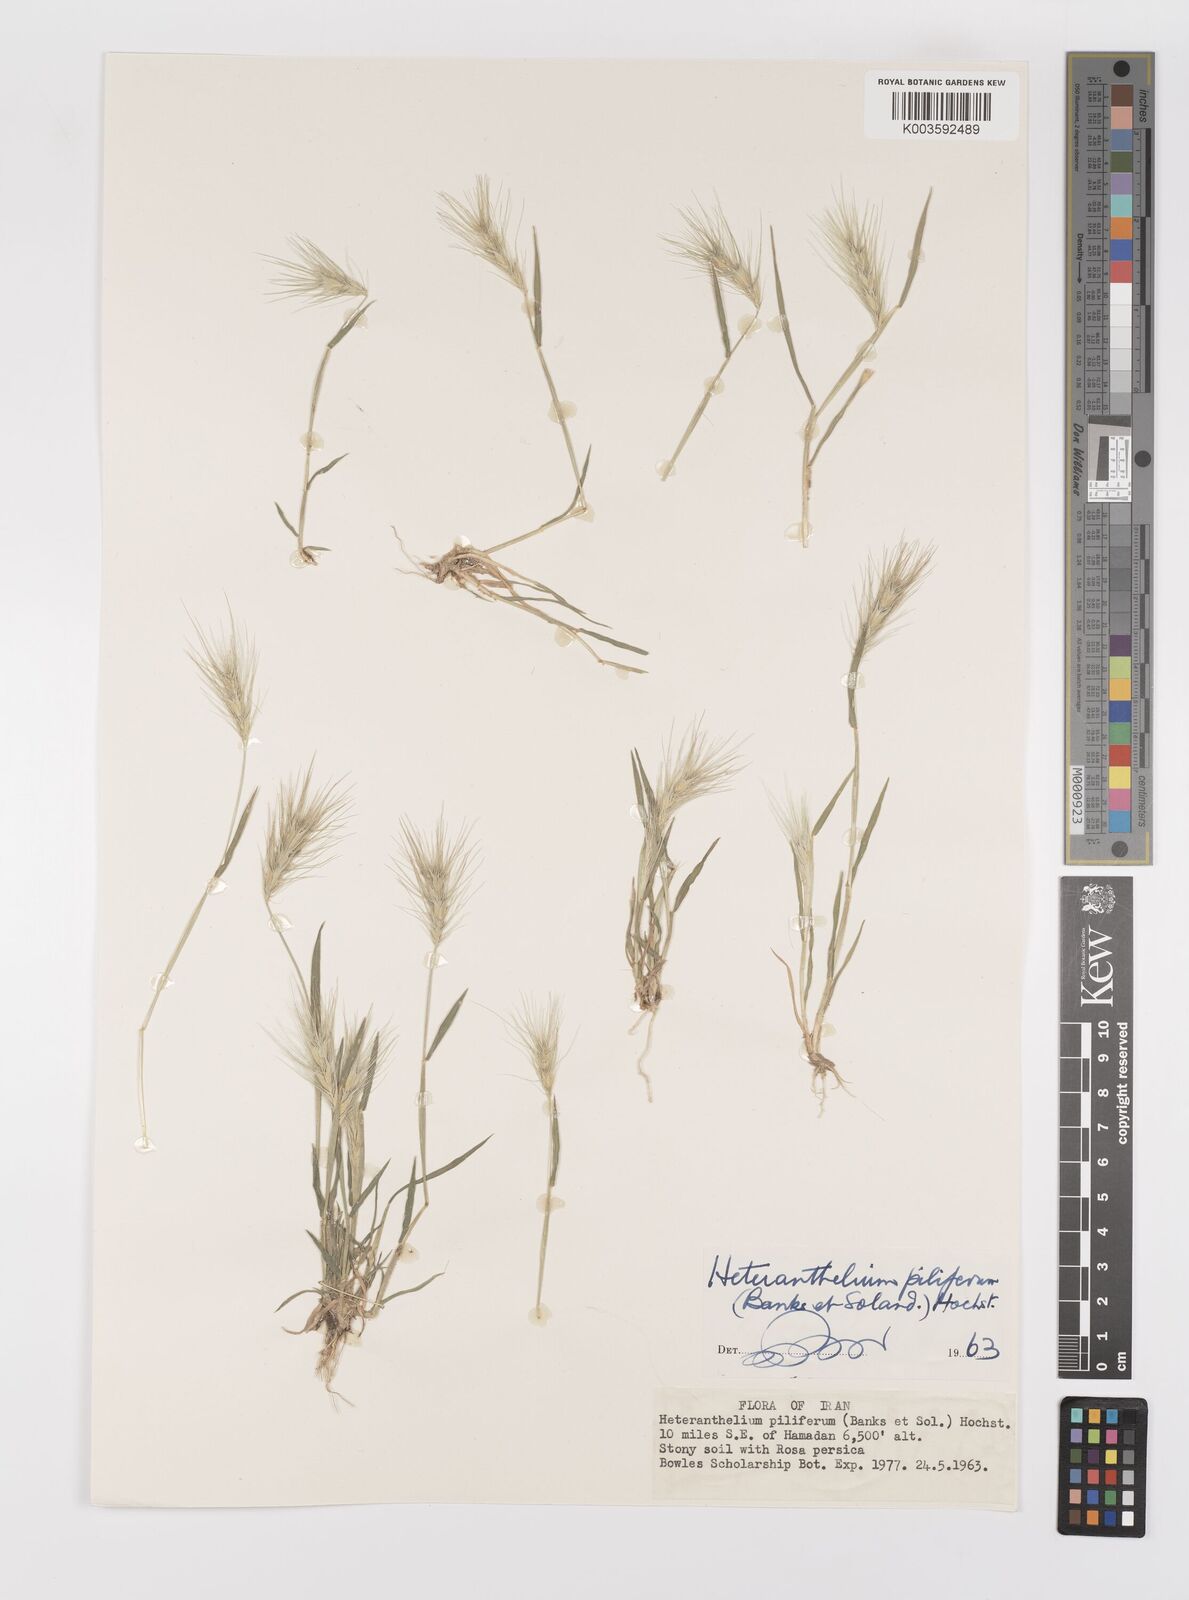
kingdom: Plantae
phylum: Tracheophyta
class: Liliopsida
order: Poales
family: Poaceae
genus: Heteranthelium
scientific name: Heteranthelium piliferum
